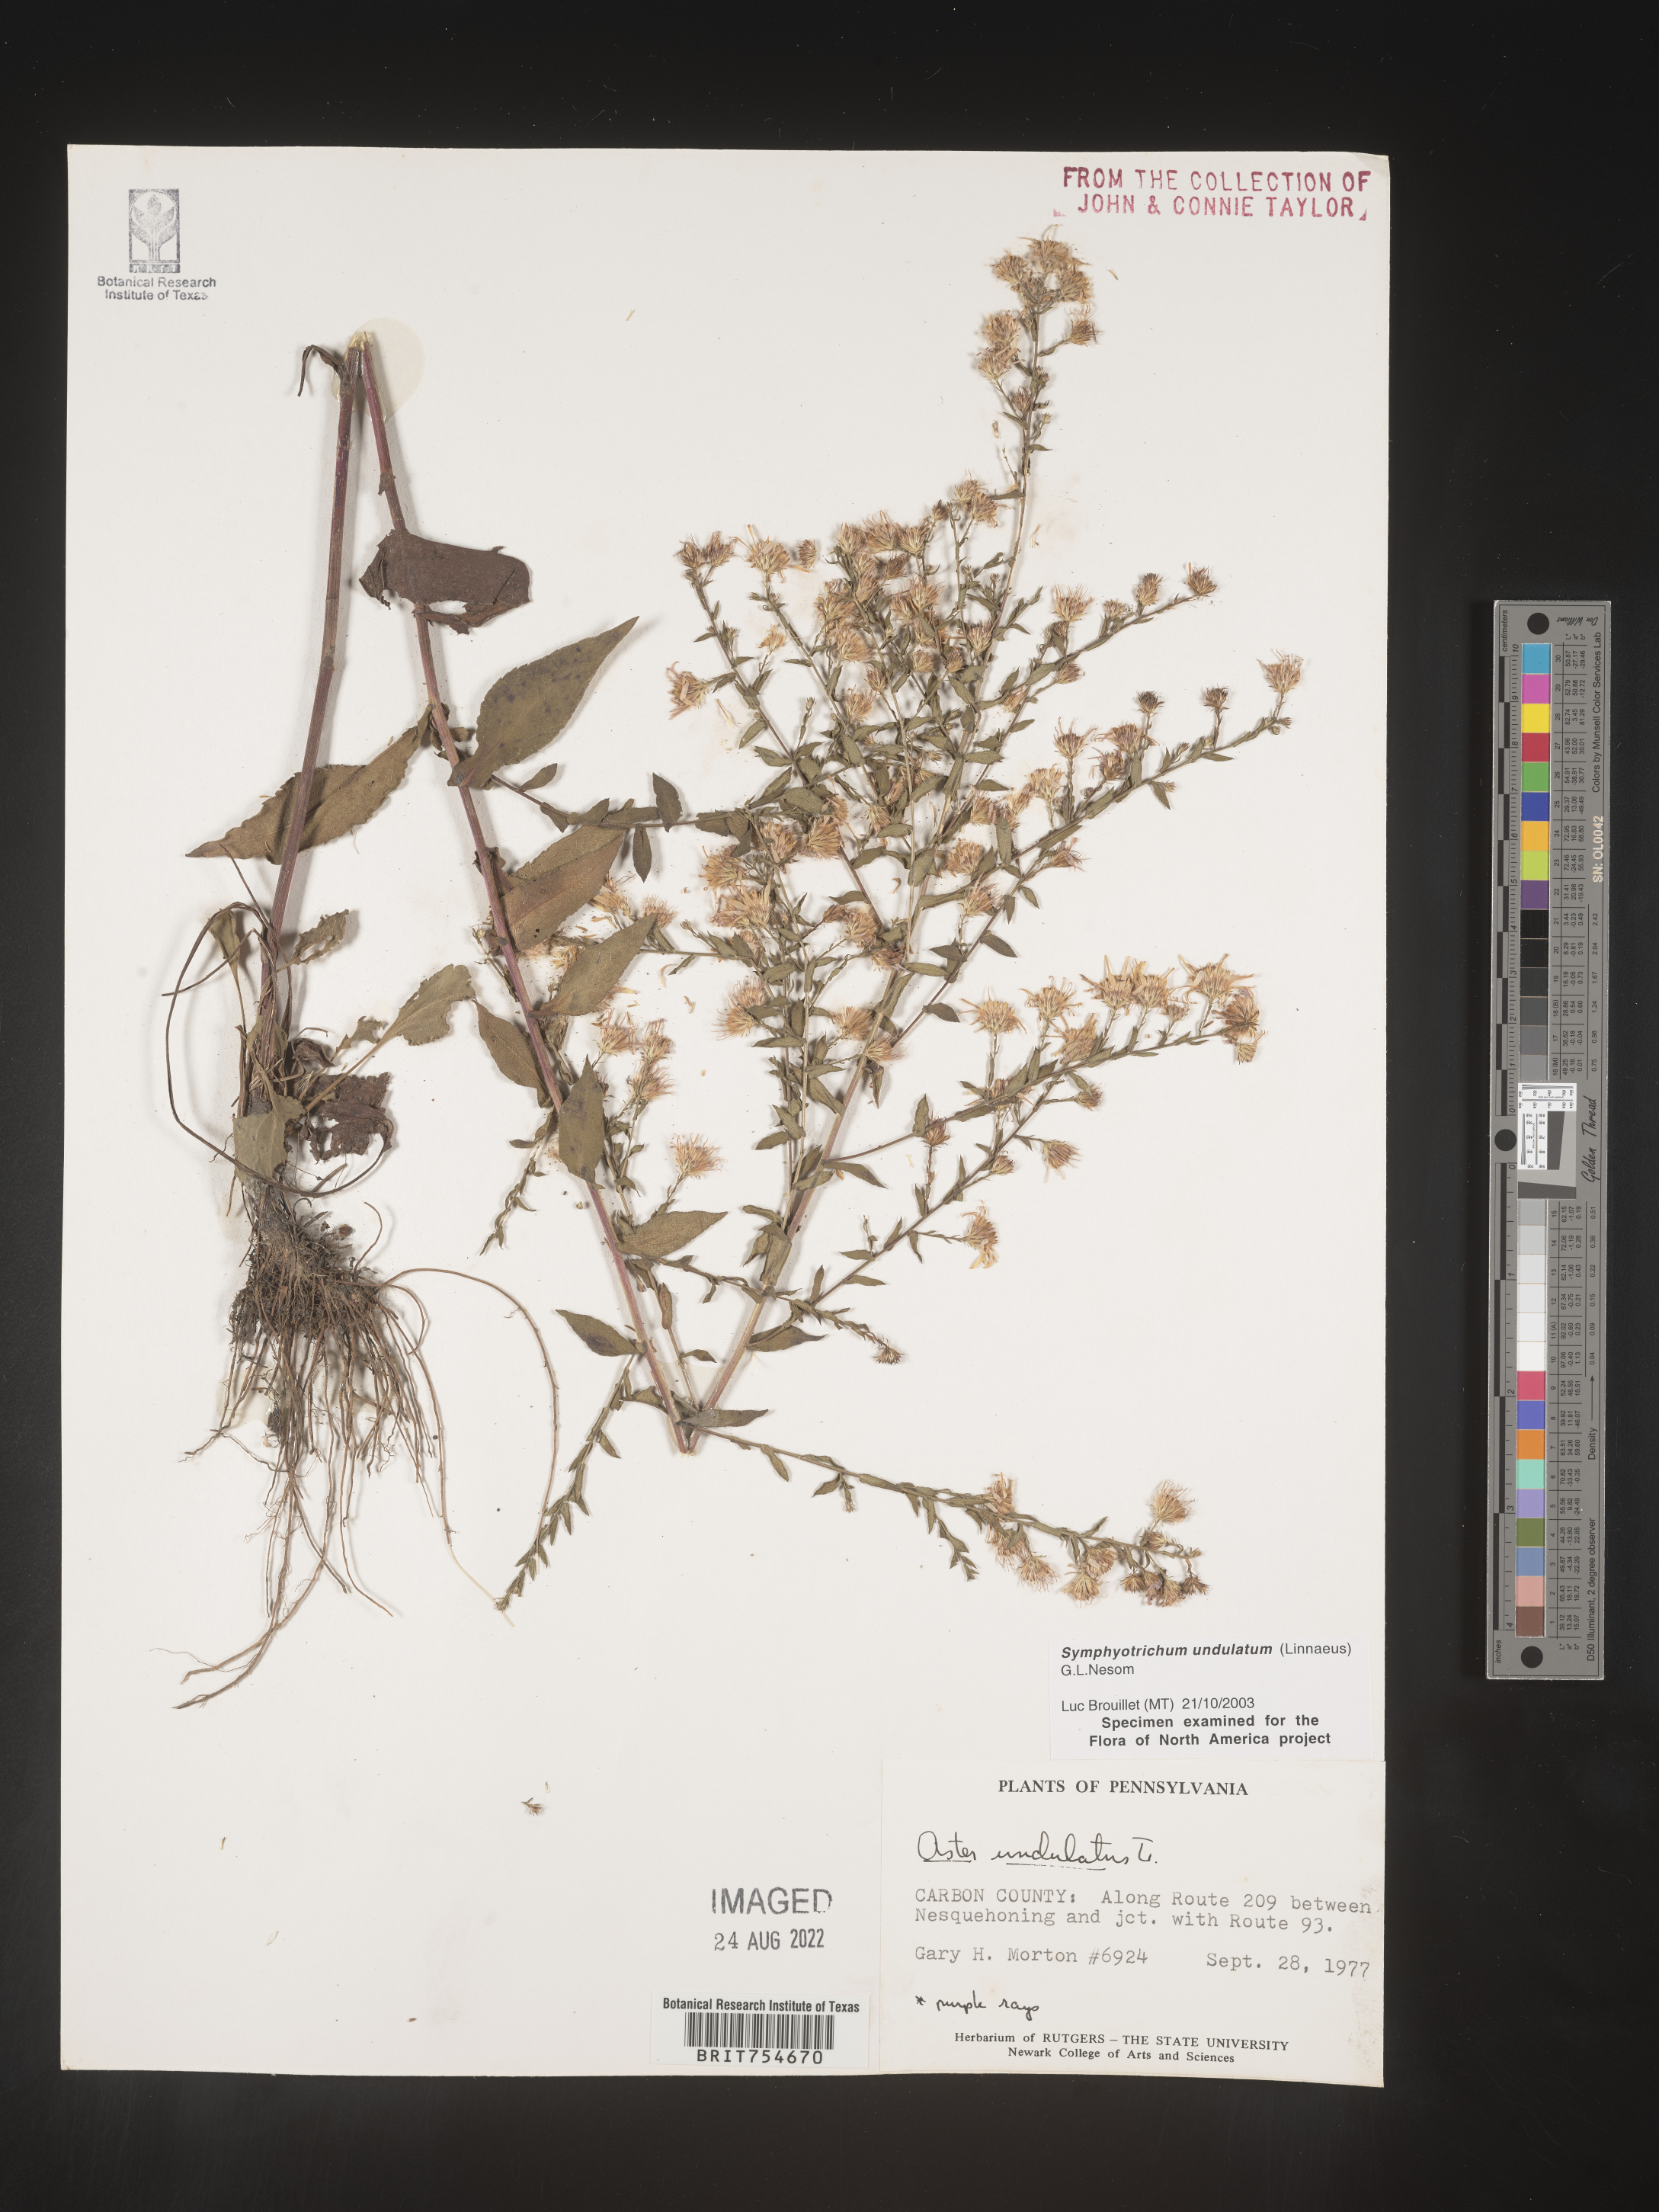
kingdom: Plantae
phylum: Tracheophyta
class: Magnoliopsida
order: Asterales
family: Asteraceae
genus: Symphyotrichum
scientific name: Symphyotrichum undulatum
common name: Clasping heart-leaf aster
